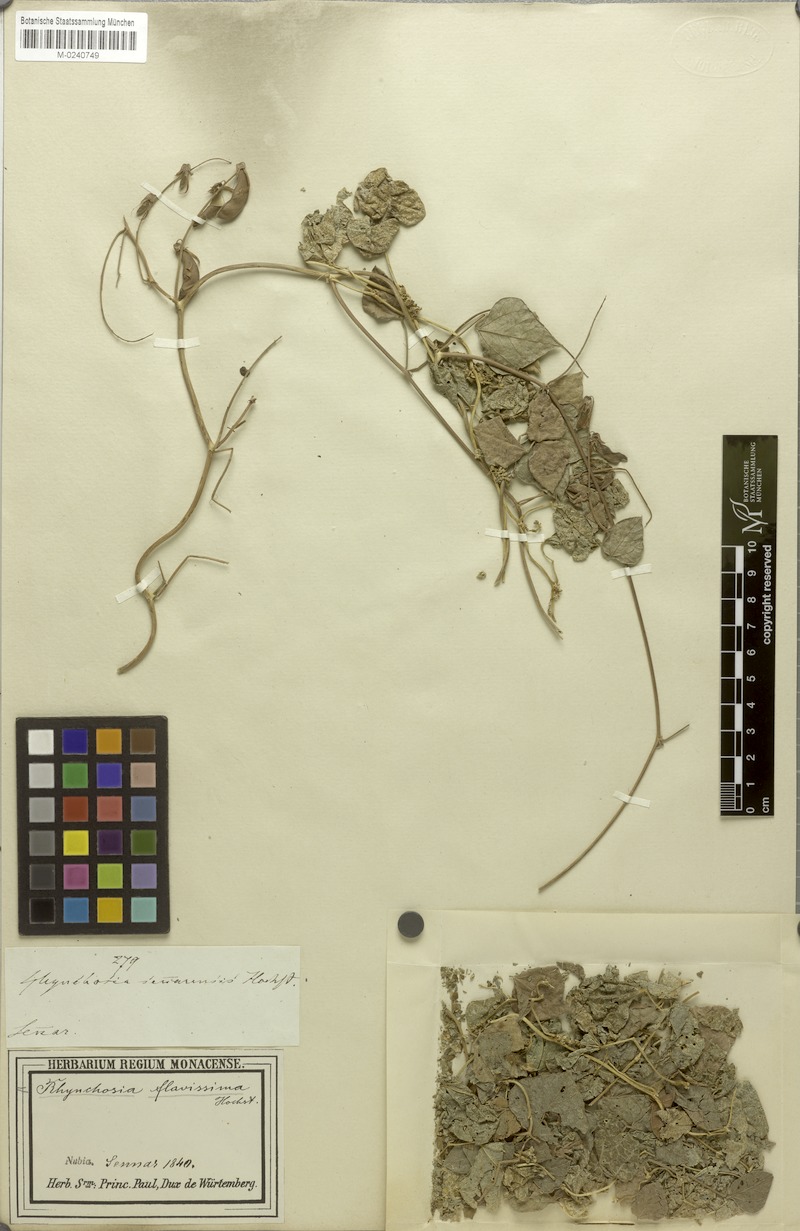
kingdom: Plantae
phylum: Tracheophyta
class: Magnoliopsida
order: Fabales
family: Fabaceae
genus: Rhynchosia
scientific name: Rhynchosia malacophylla
